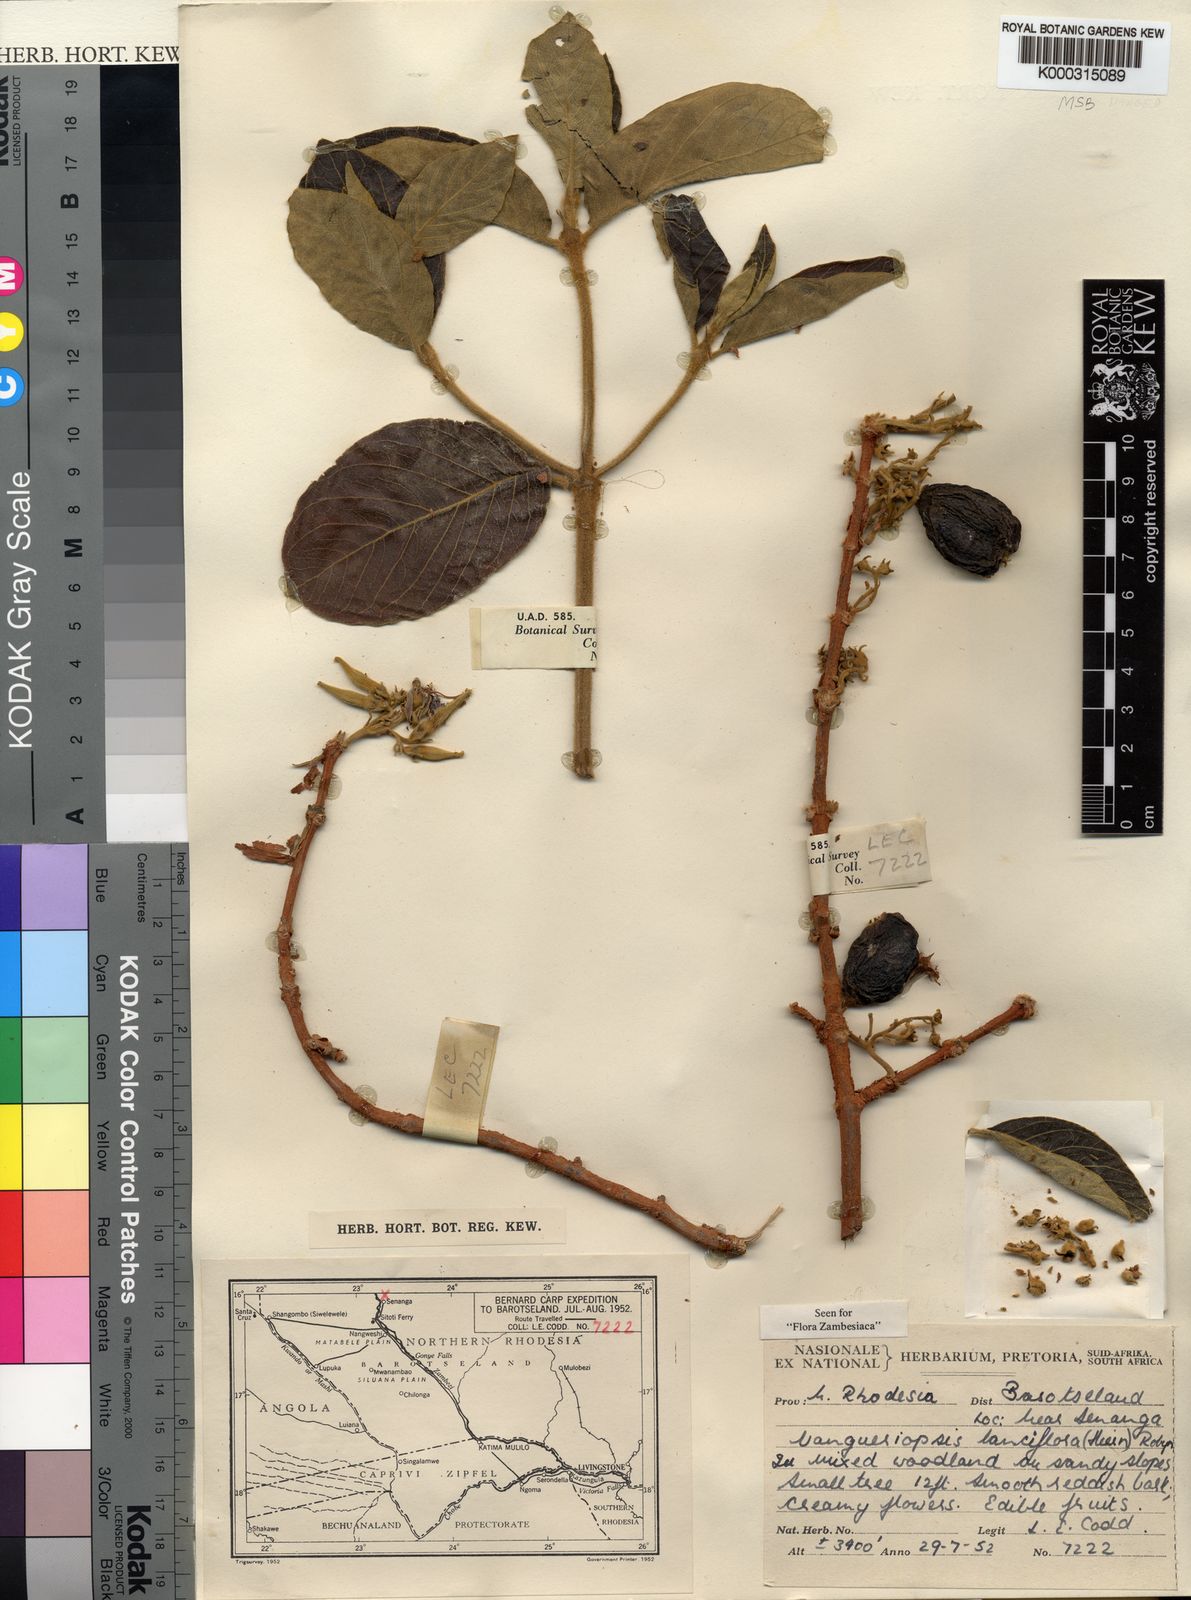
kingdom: Plantae
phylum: Tracheophyta
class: Magnoliopsida
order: Gentianales
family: Rubiaceae
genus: Vangueriopsis
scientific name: Vangueriopsis
